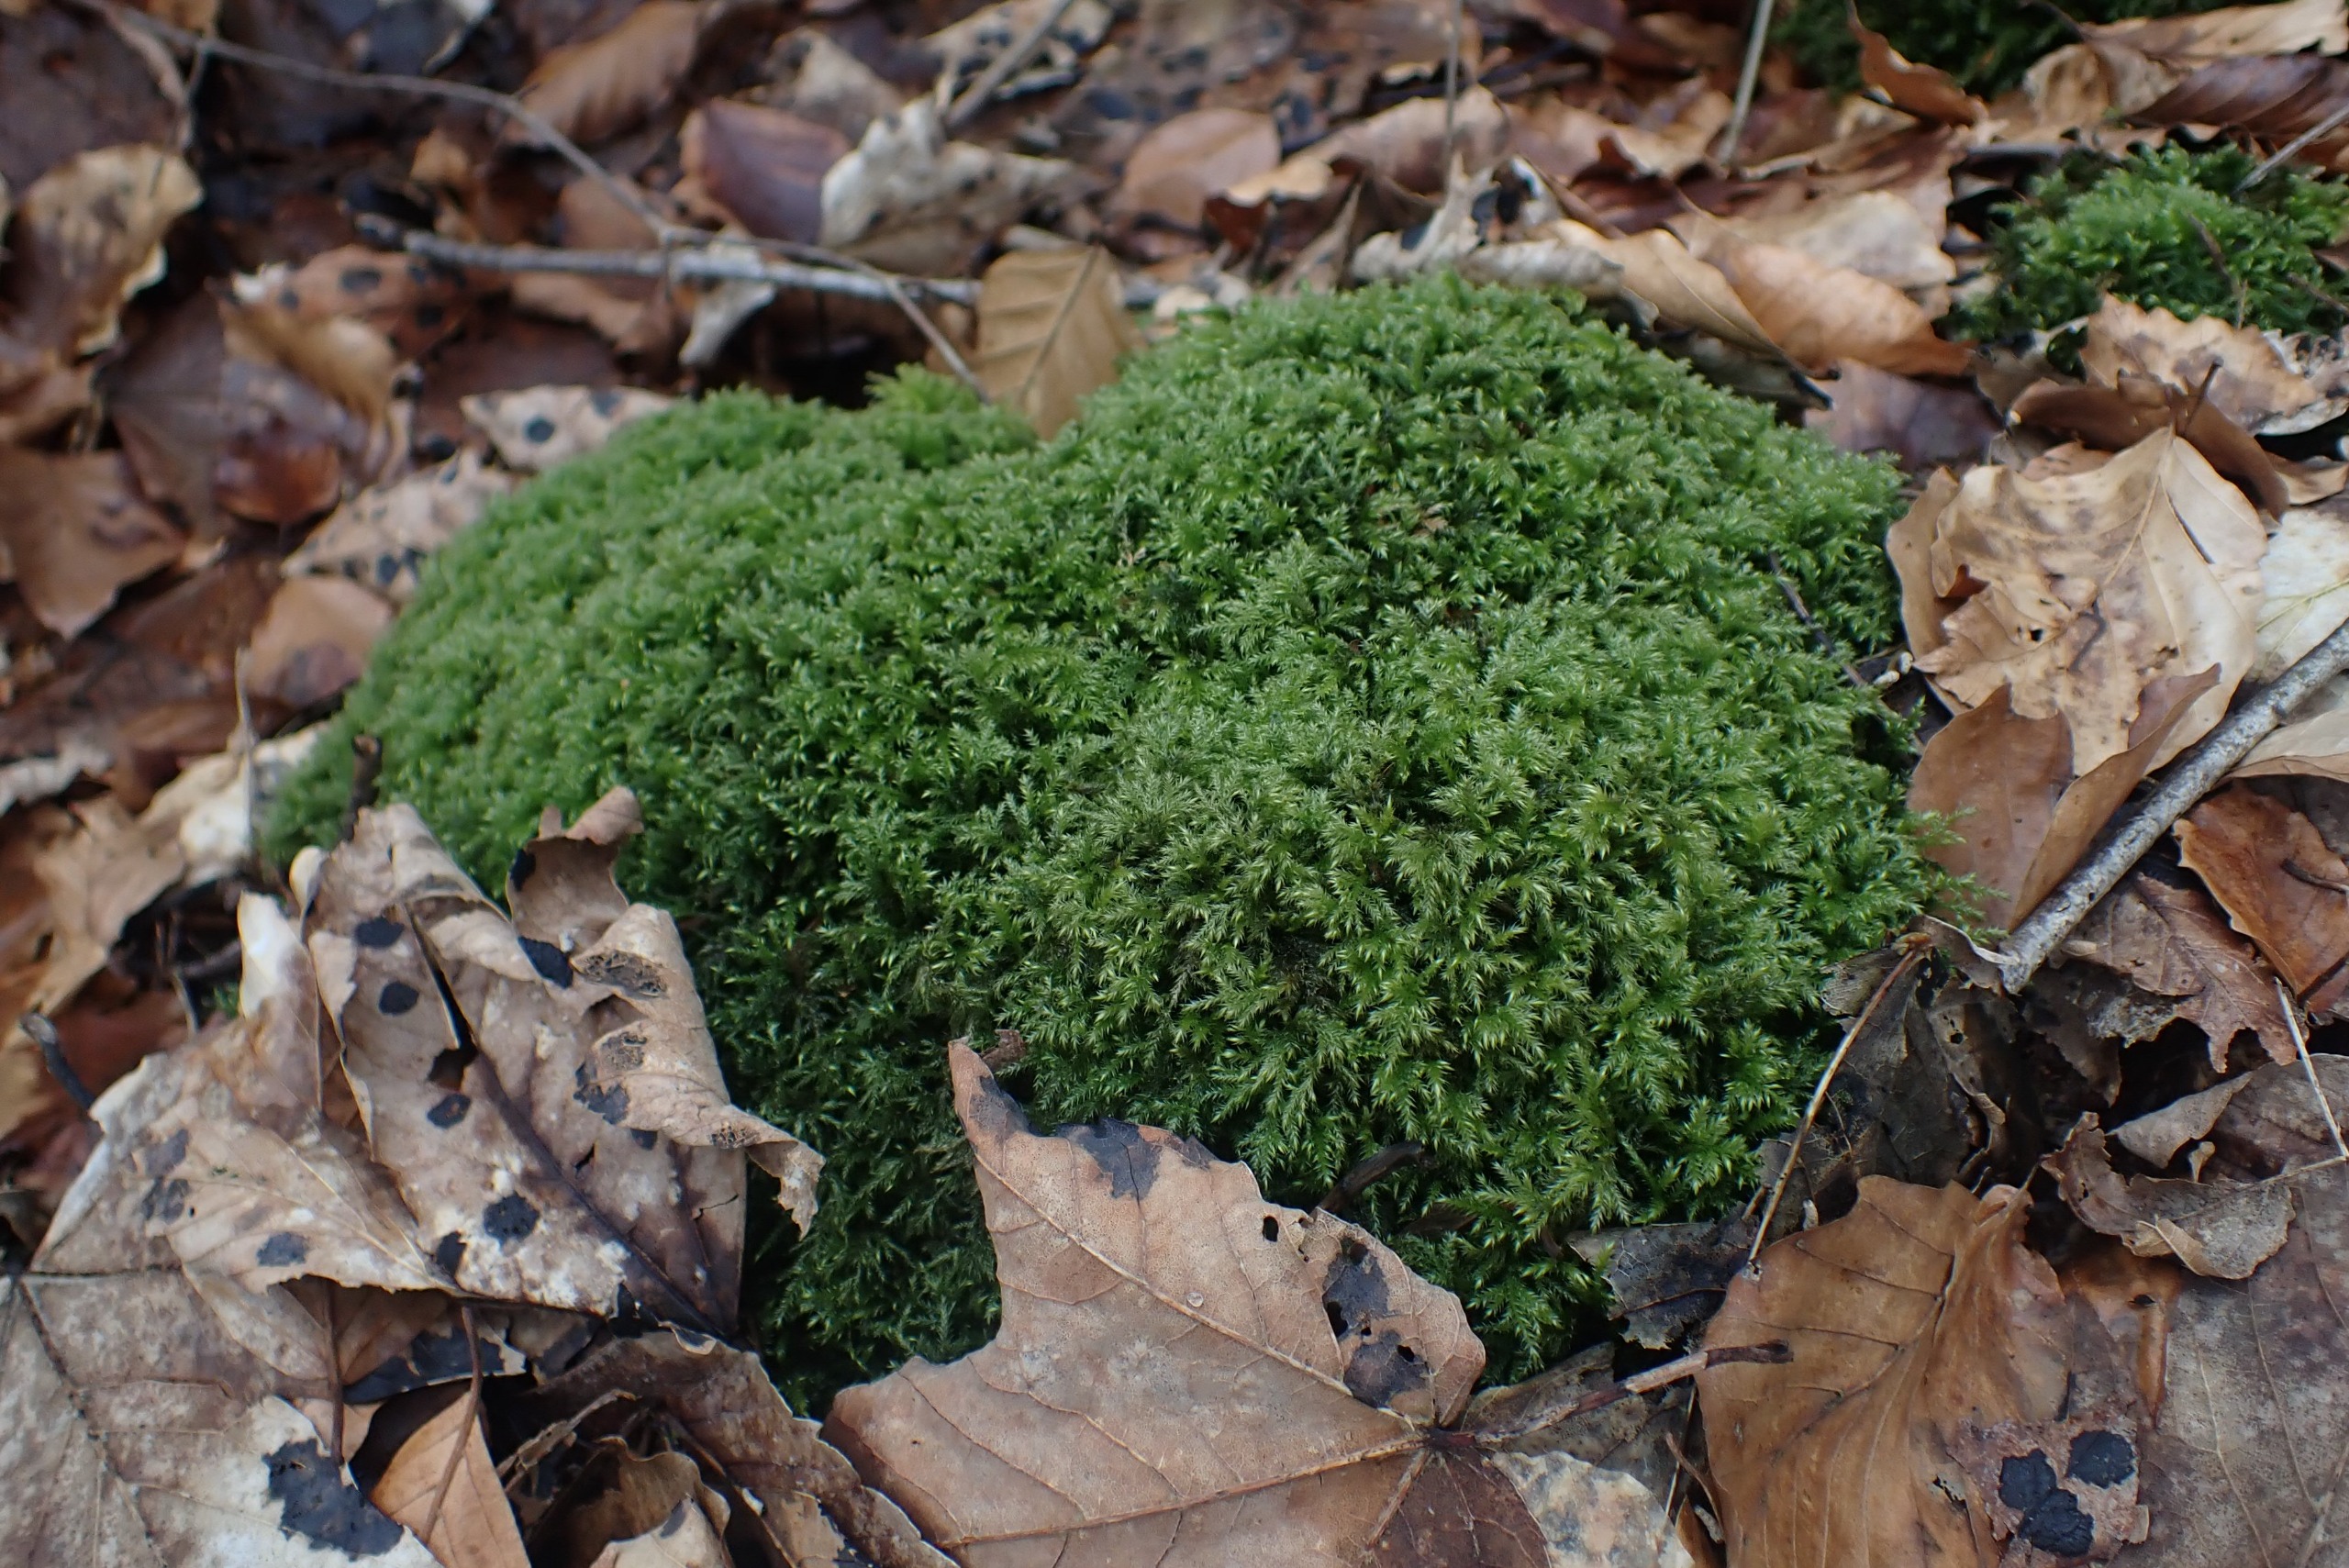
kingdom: Plantae
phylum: Bryophyta
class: Bryopsida
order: Hypnales
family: Lembophyllaceae
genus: Pseudisothecium
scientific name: Pseudisothecium myosuroides
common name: Slank stammemos
